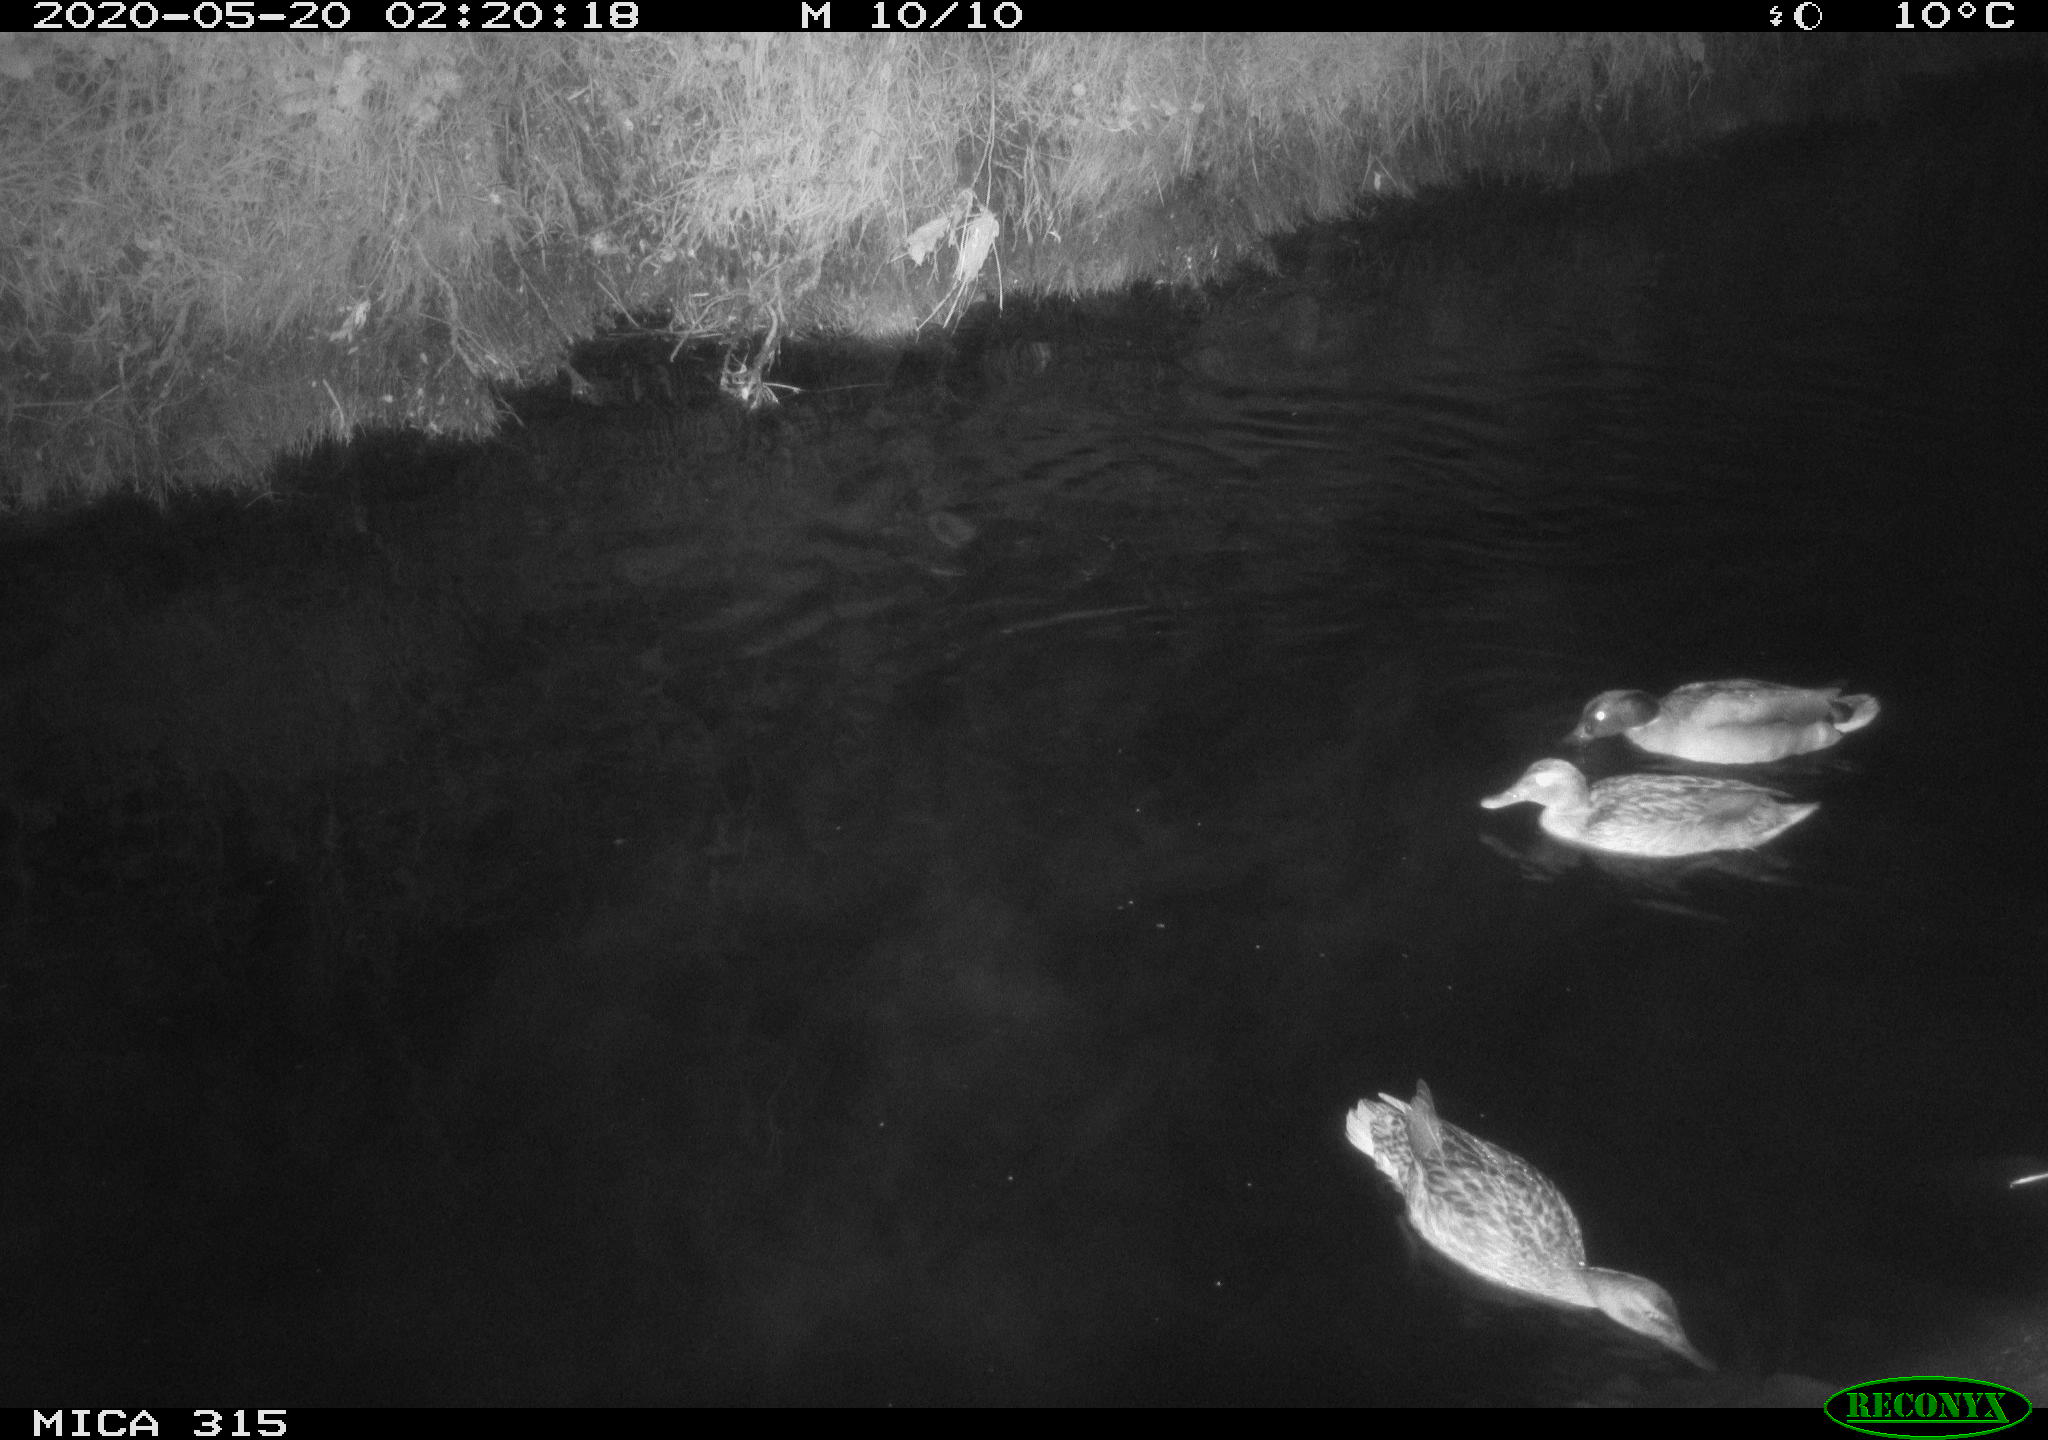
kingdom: Animalia
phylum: Chordata
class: Aves
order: Anseriformes
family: Anatidae
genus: Anas
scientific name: Anas platyrhynchos
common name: Mallard
